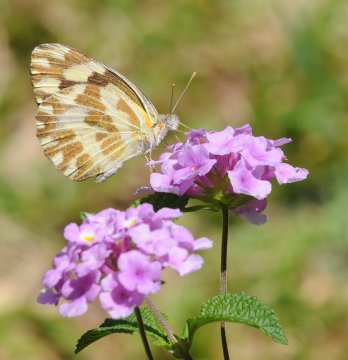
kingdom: Animalia
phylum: Arthropoda
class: Insecta
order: Lepidoptera
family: Pieridae
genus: Pinacopteryx
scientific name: Pinacopteryx eriphia
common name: Zebra White
